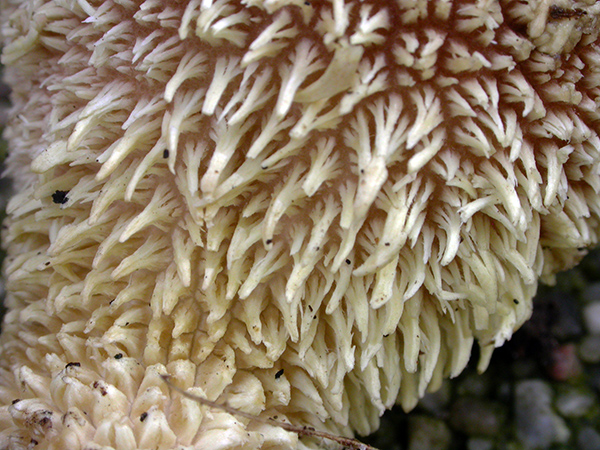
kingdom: Fungi
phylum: Basidiomycota
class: Agaricomycetes
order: Agaricales
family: Lycoperdaceae
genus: Lycoperdon
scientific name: Lycoperdon echinatum
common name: pindsvine-støvbold
